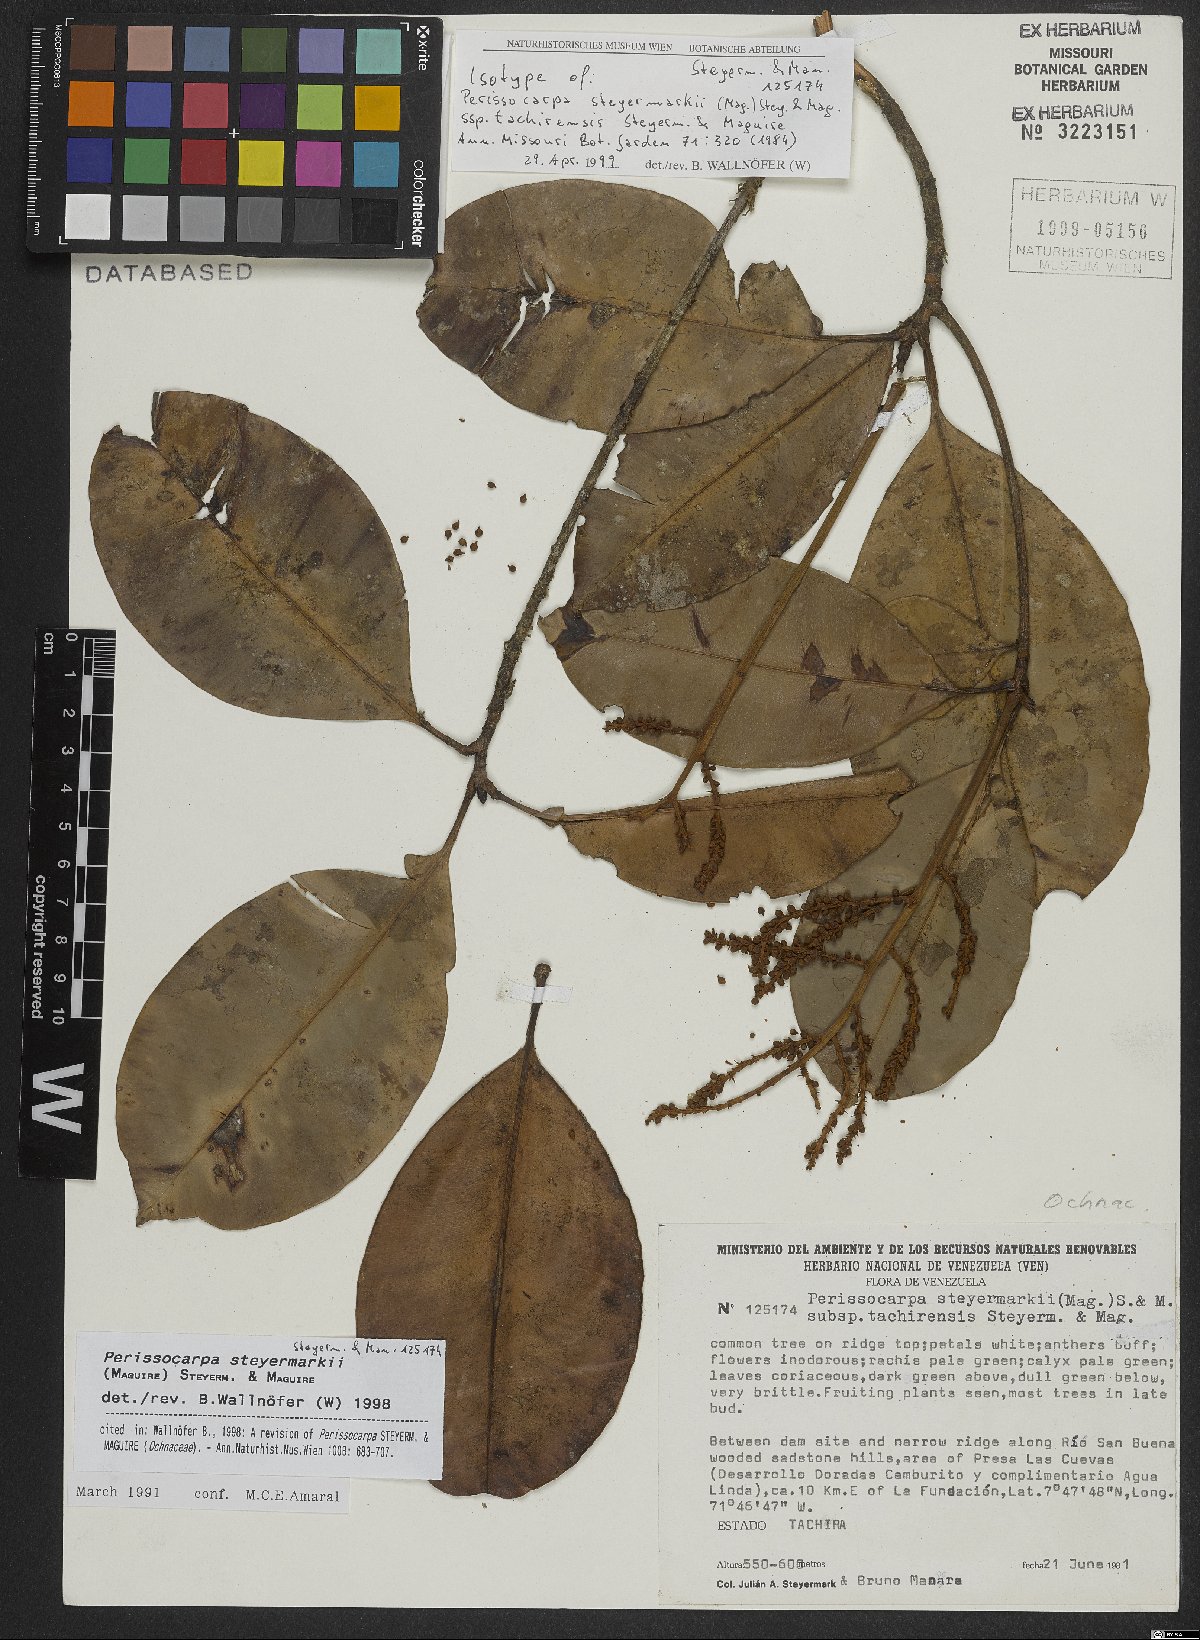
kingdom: Plantae
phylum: Tracheophyta
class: Magnoliopsida
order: Malpighiales
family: Ochnaceae
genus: Perissocarpa
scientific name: Perissocarpa steyermarkii
